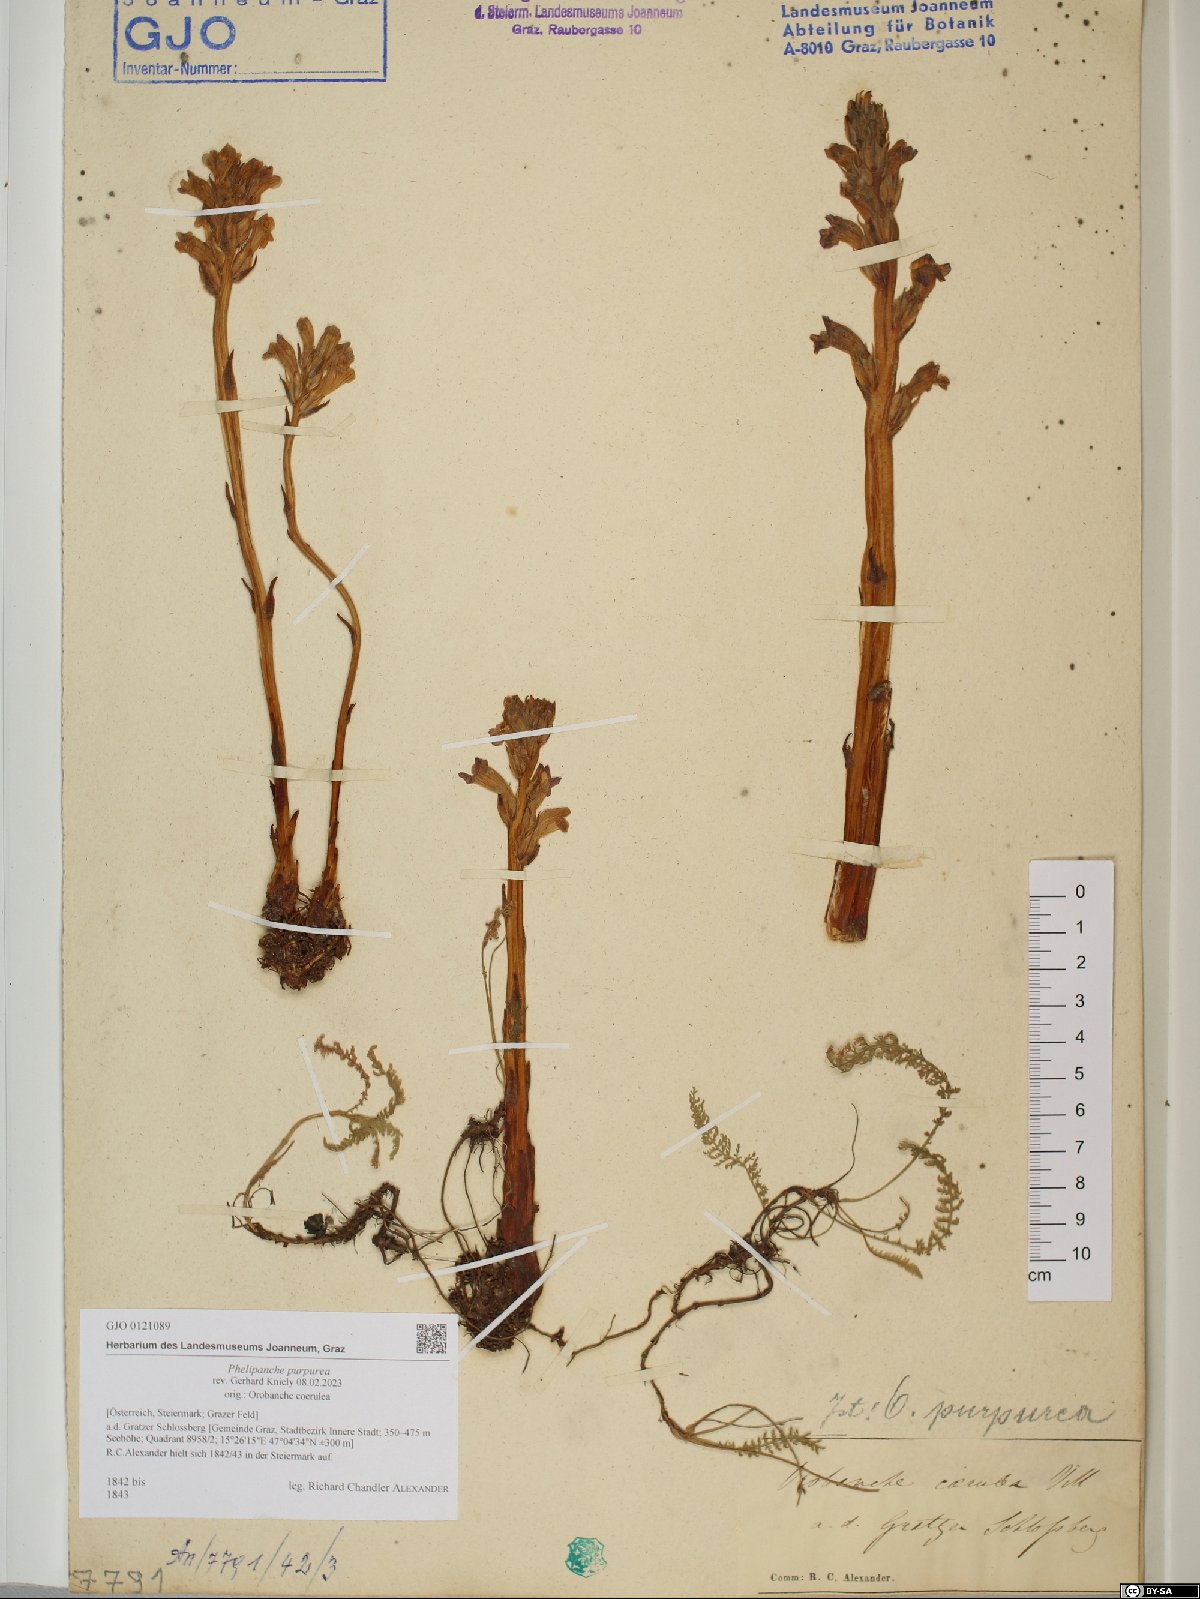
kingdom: Plantae
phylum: Tracheophyta
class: Magnoliopsida
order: Lamiales
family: Orobanchaceae
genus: Phelipanche
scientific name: Phelipanche purpurea
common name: Purple broomrape
